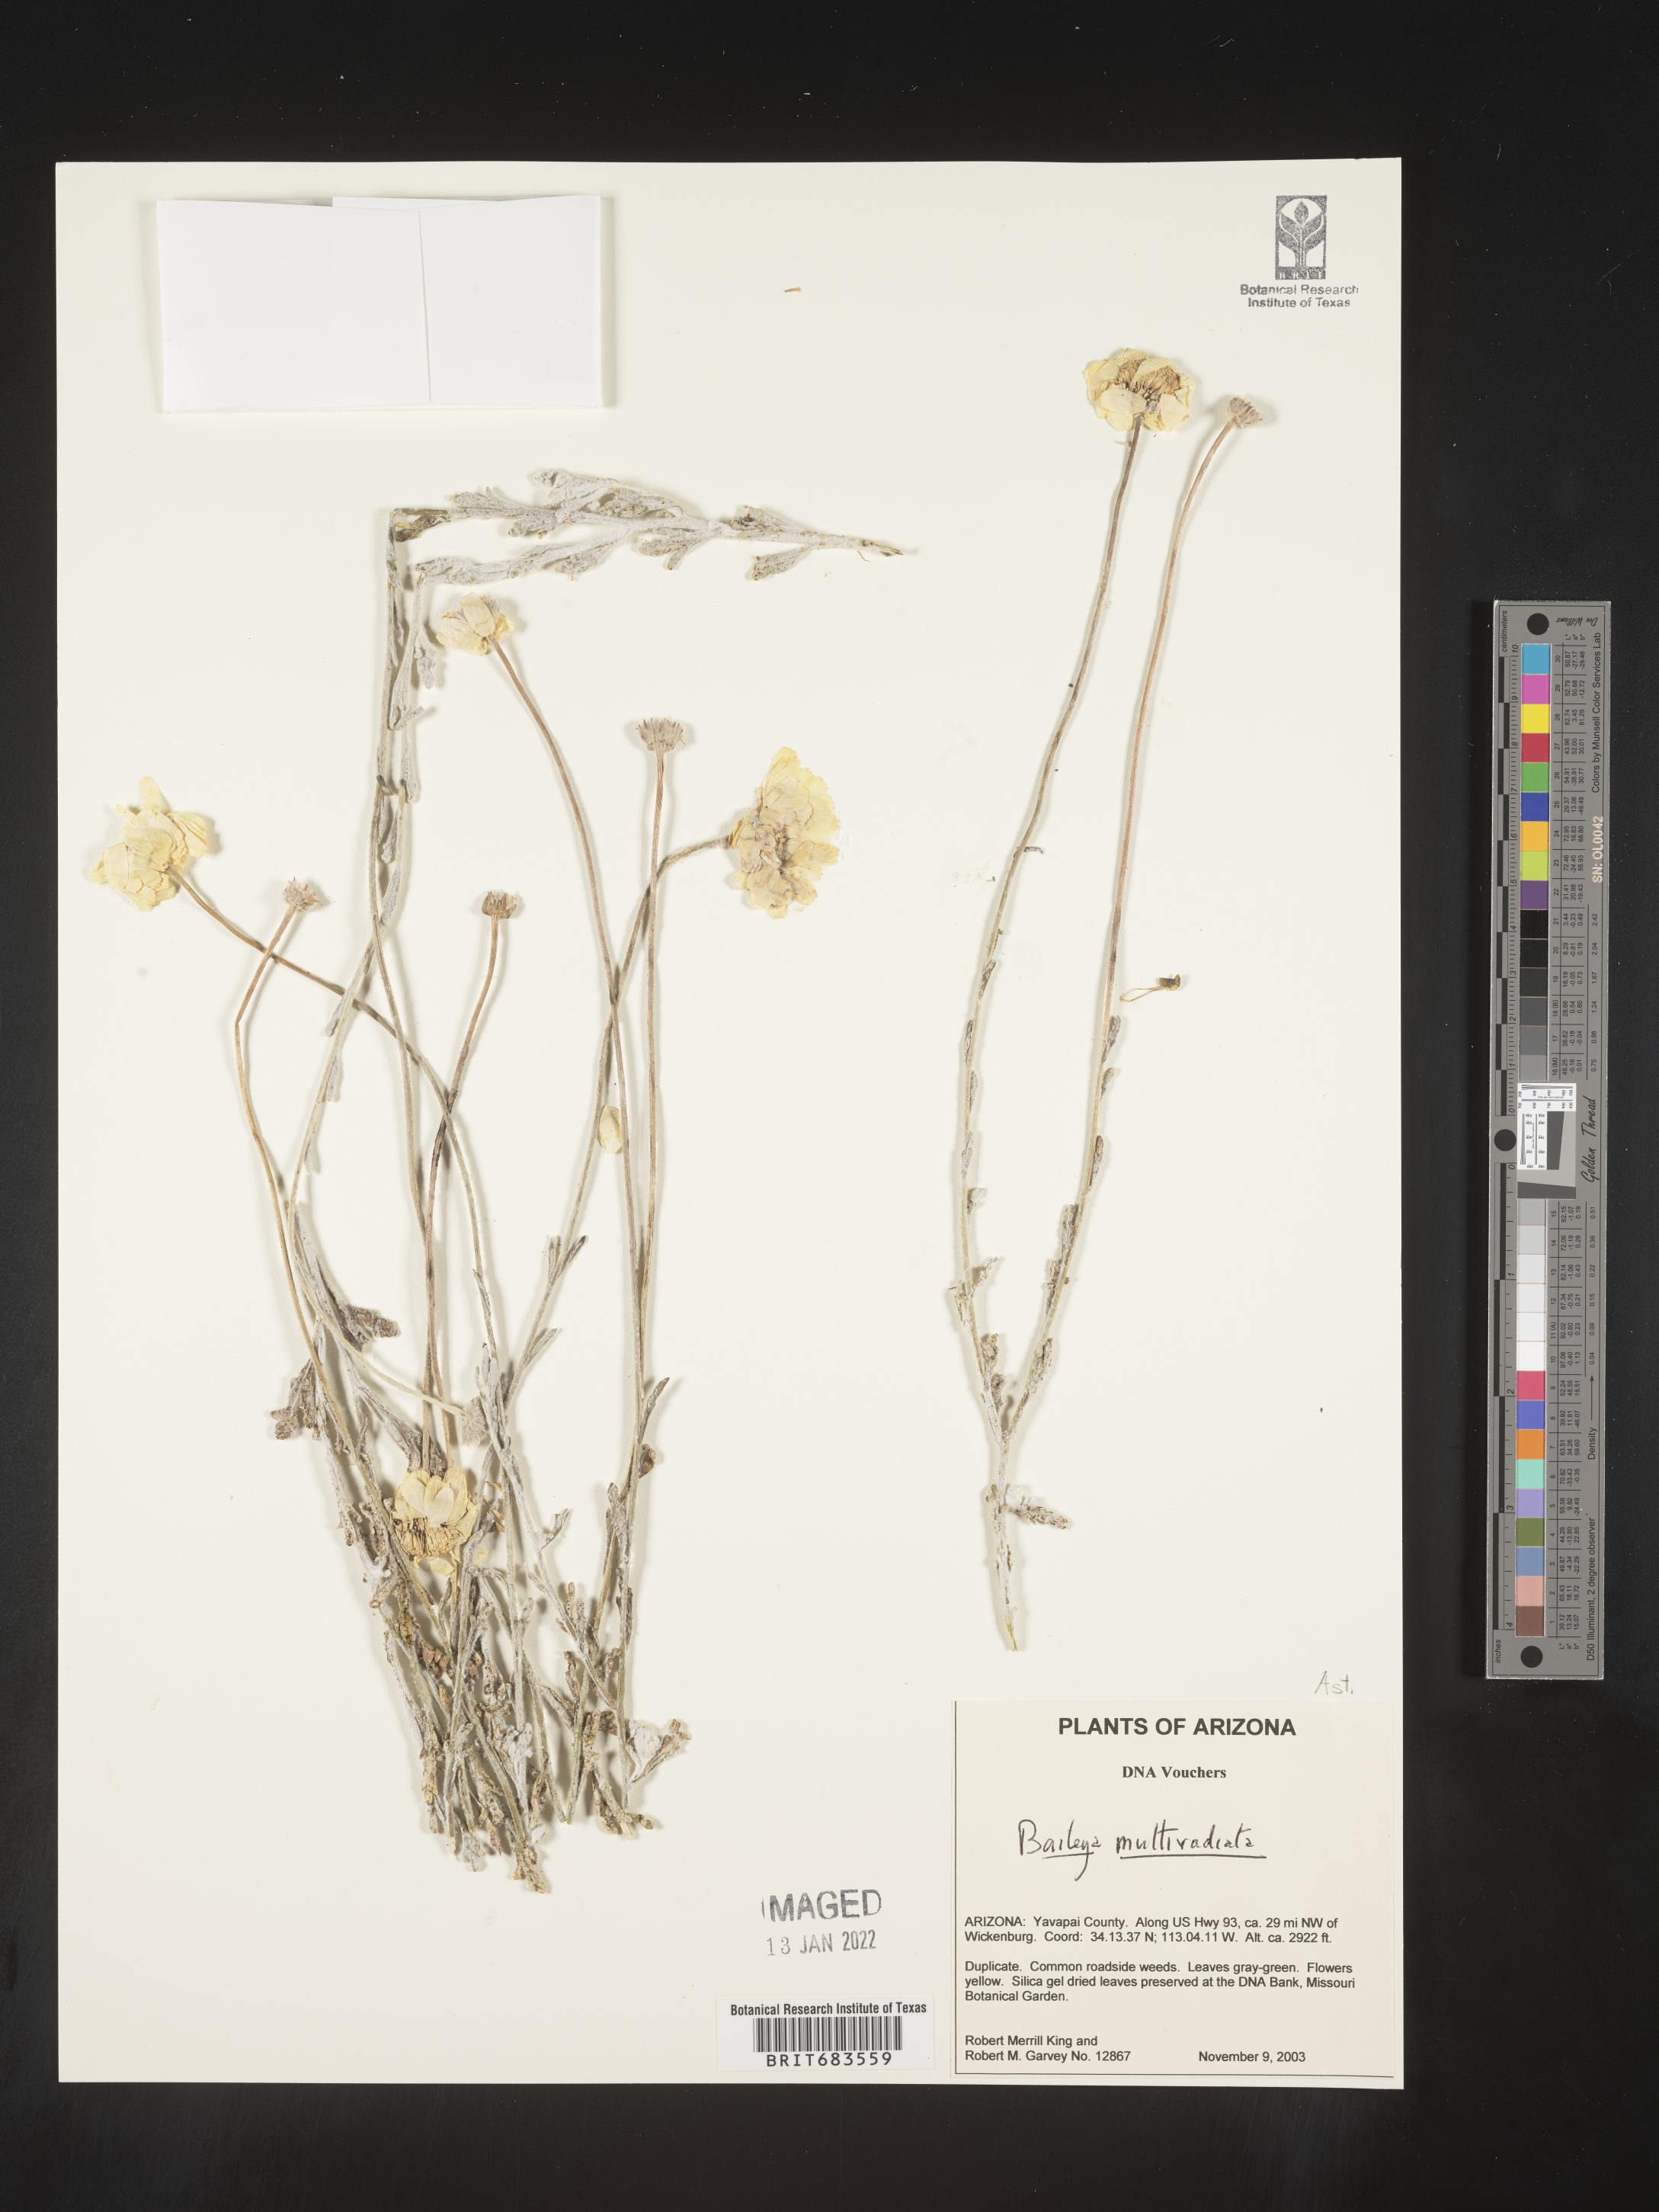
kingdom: Plantae
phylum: Tracheophyta
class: Magnoliopsida
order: Asterales
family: Asteraceae
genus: Baileya
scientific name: Baileya multiradiata
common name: Desert-marigold
